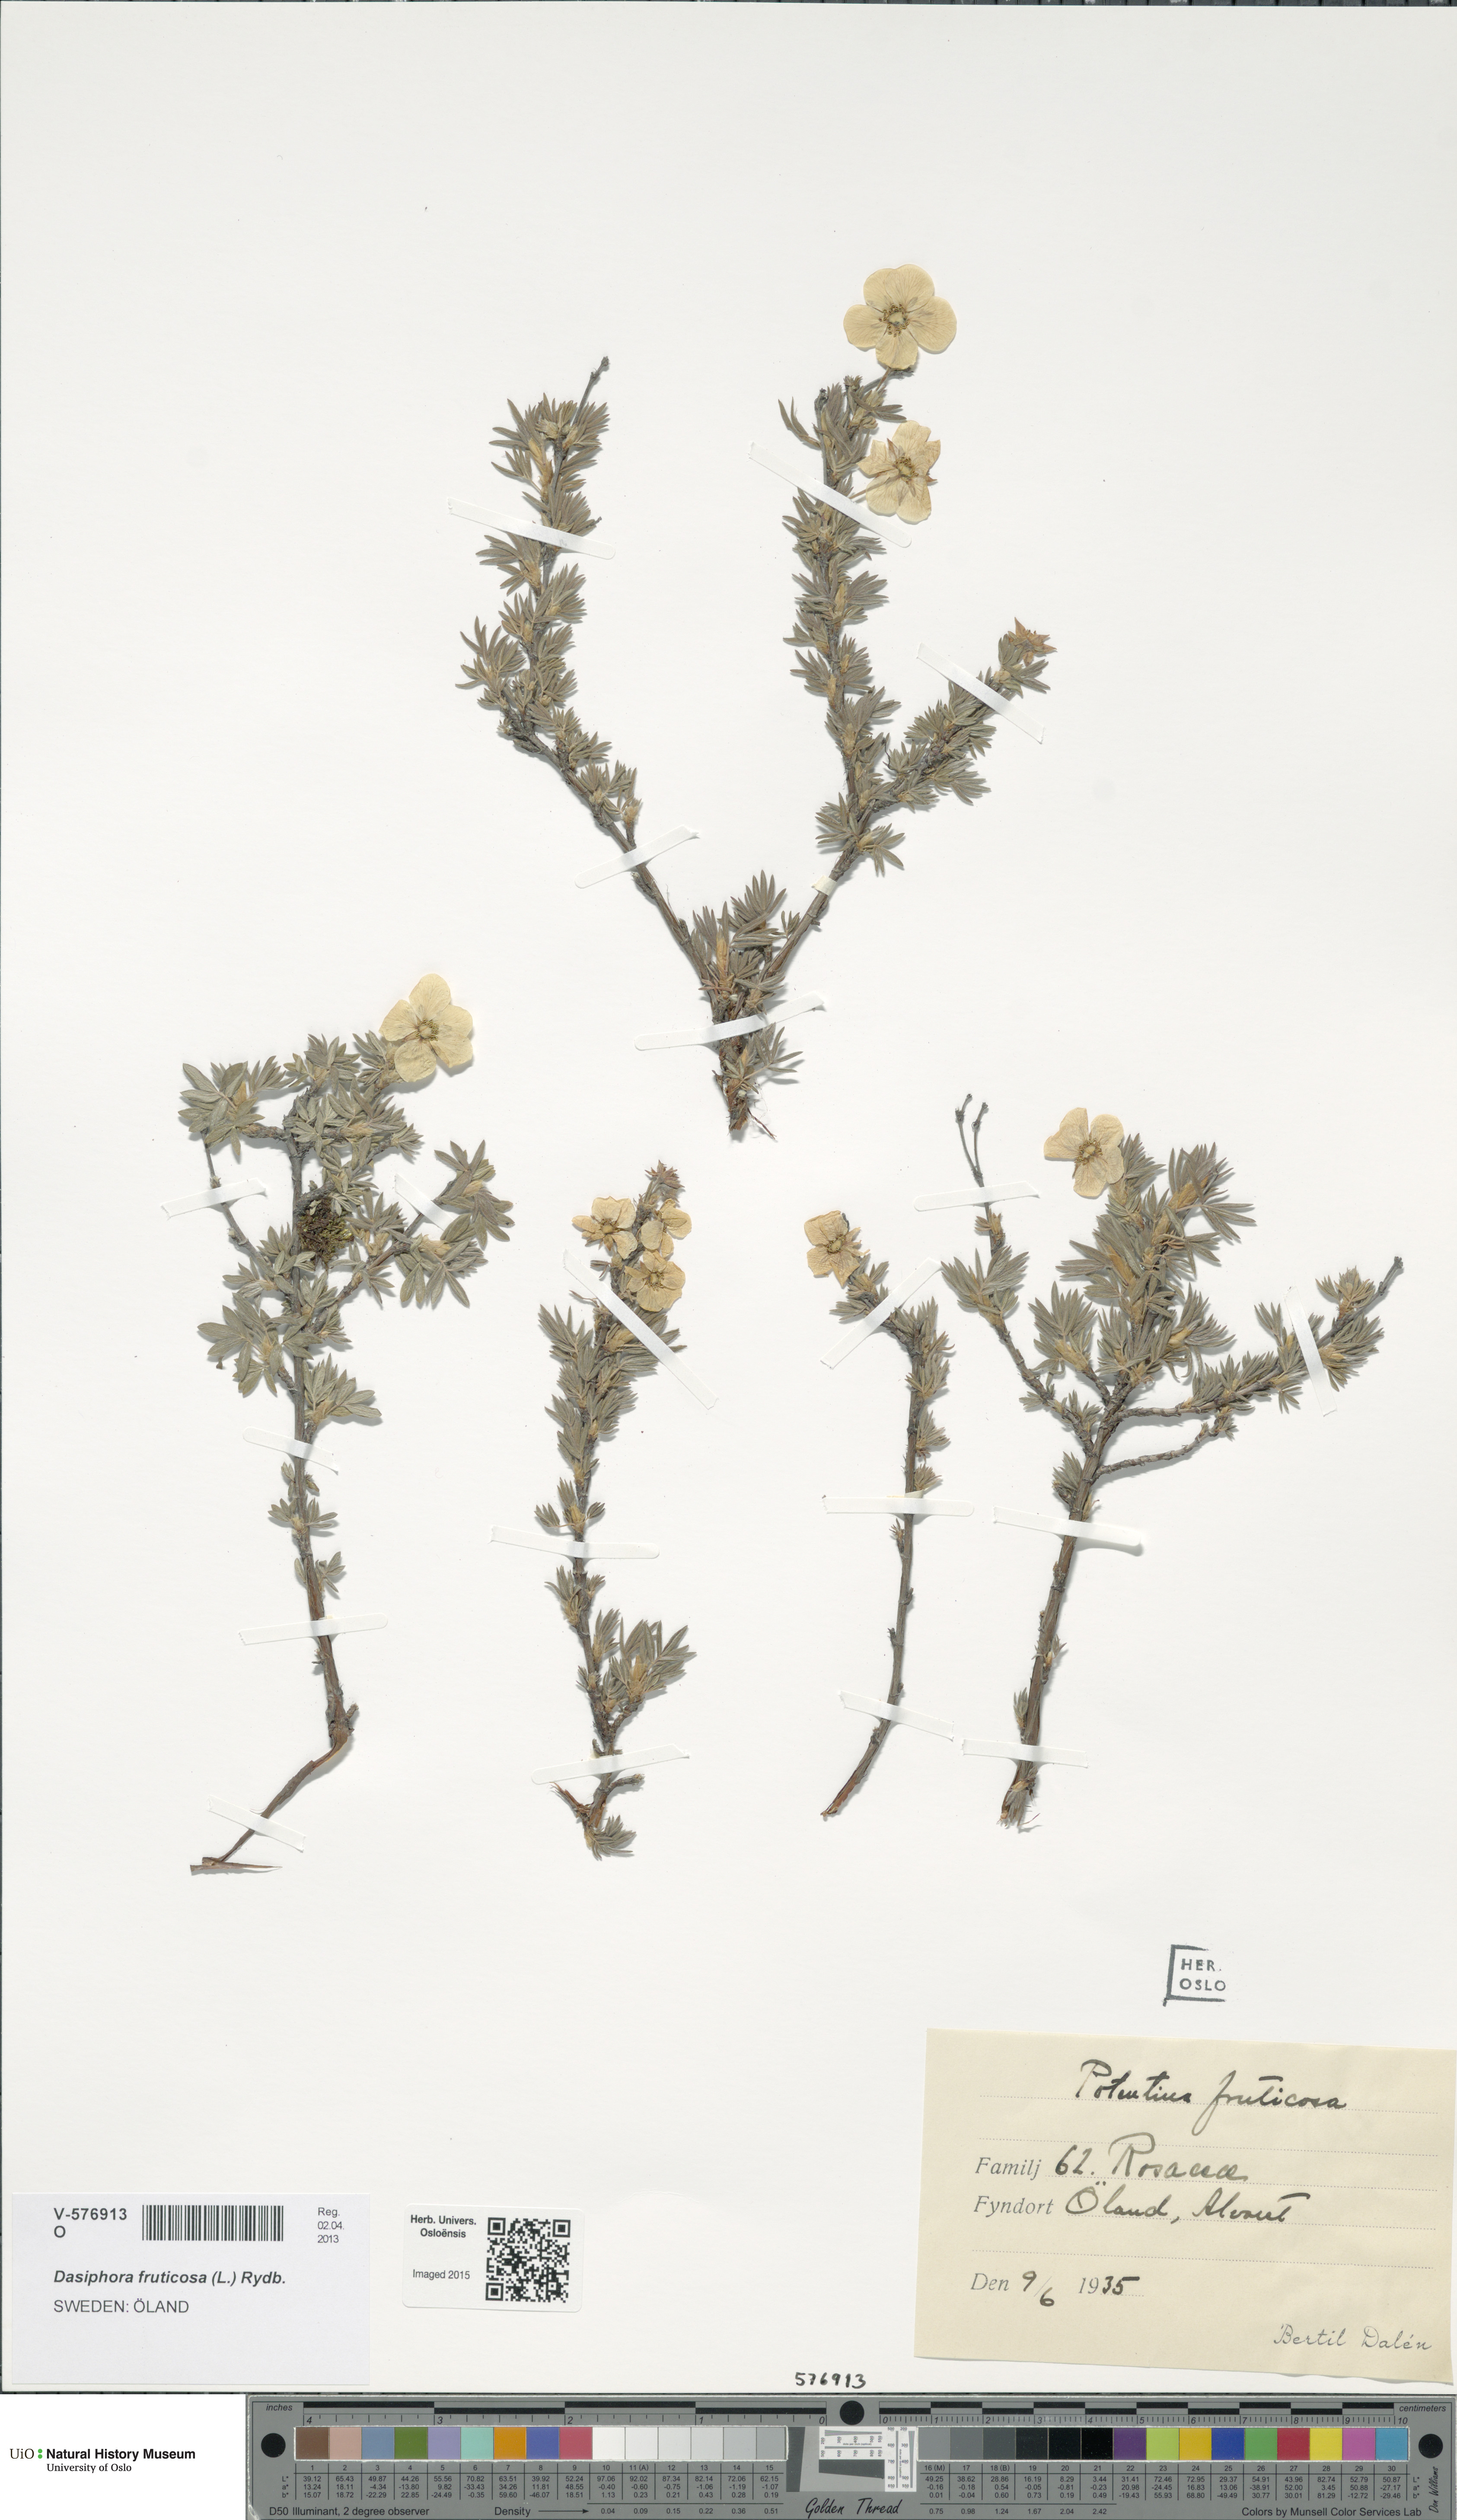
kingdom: Plantae
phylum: Tracheophyta
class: Magnoliopsida
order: Rosales
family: Rosaceae
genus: Dasiphora
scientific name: Dasiphora fruticosa
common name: Shrubby cinquefoil
